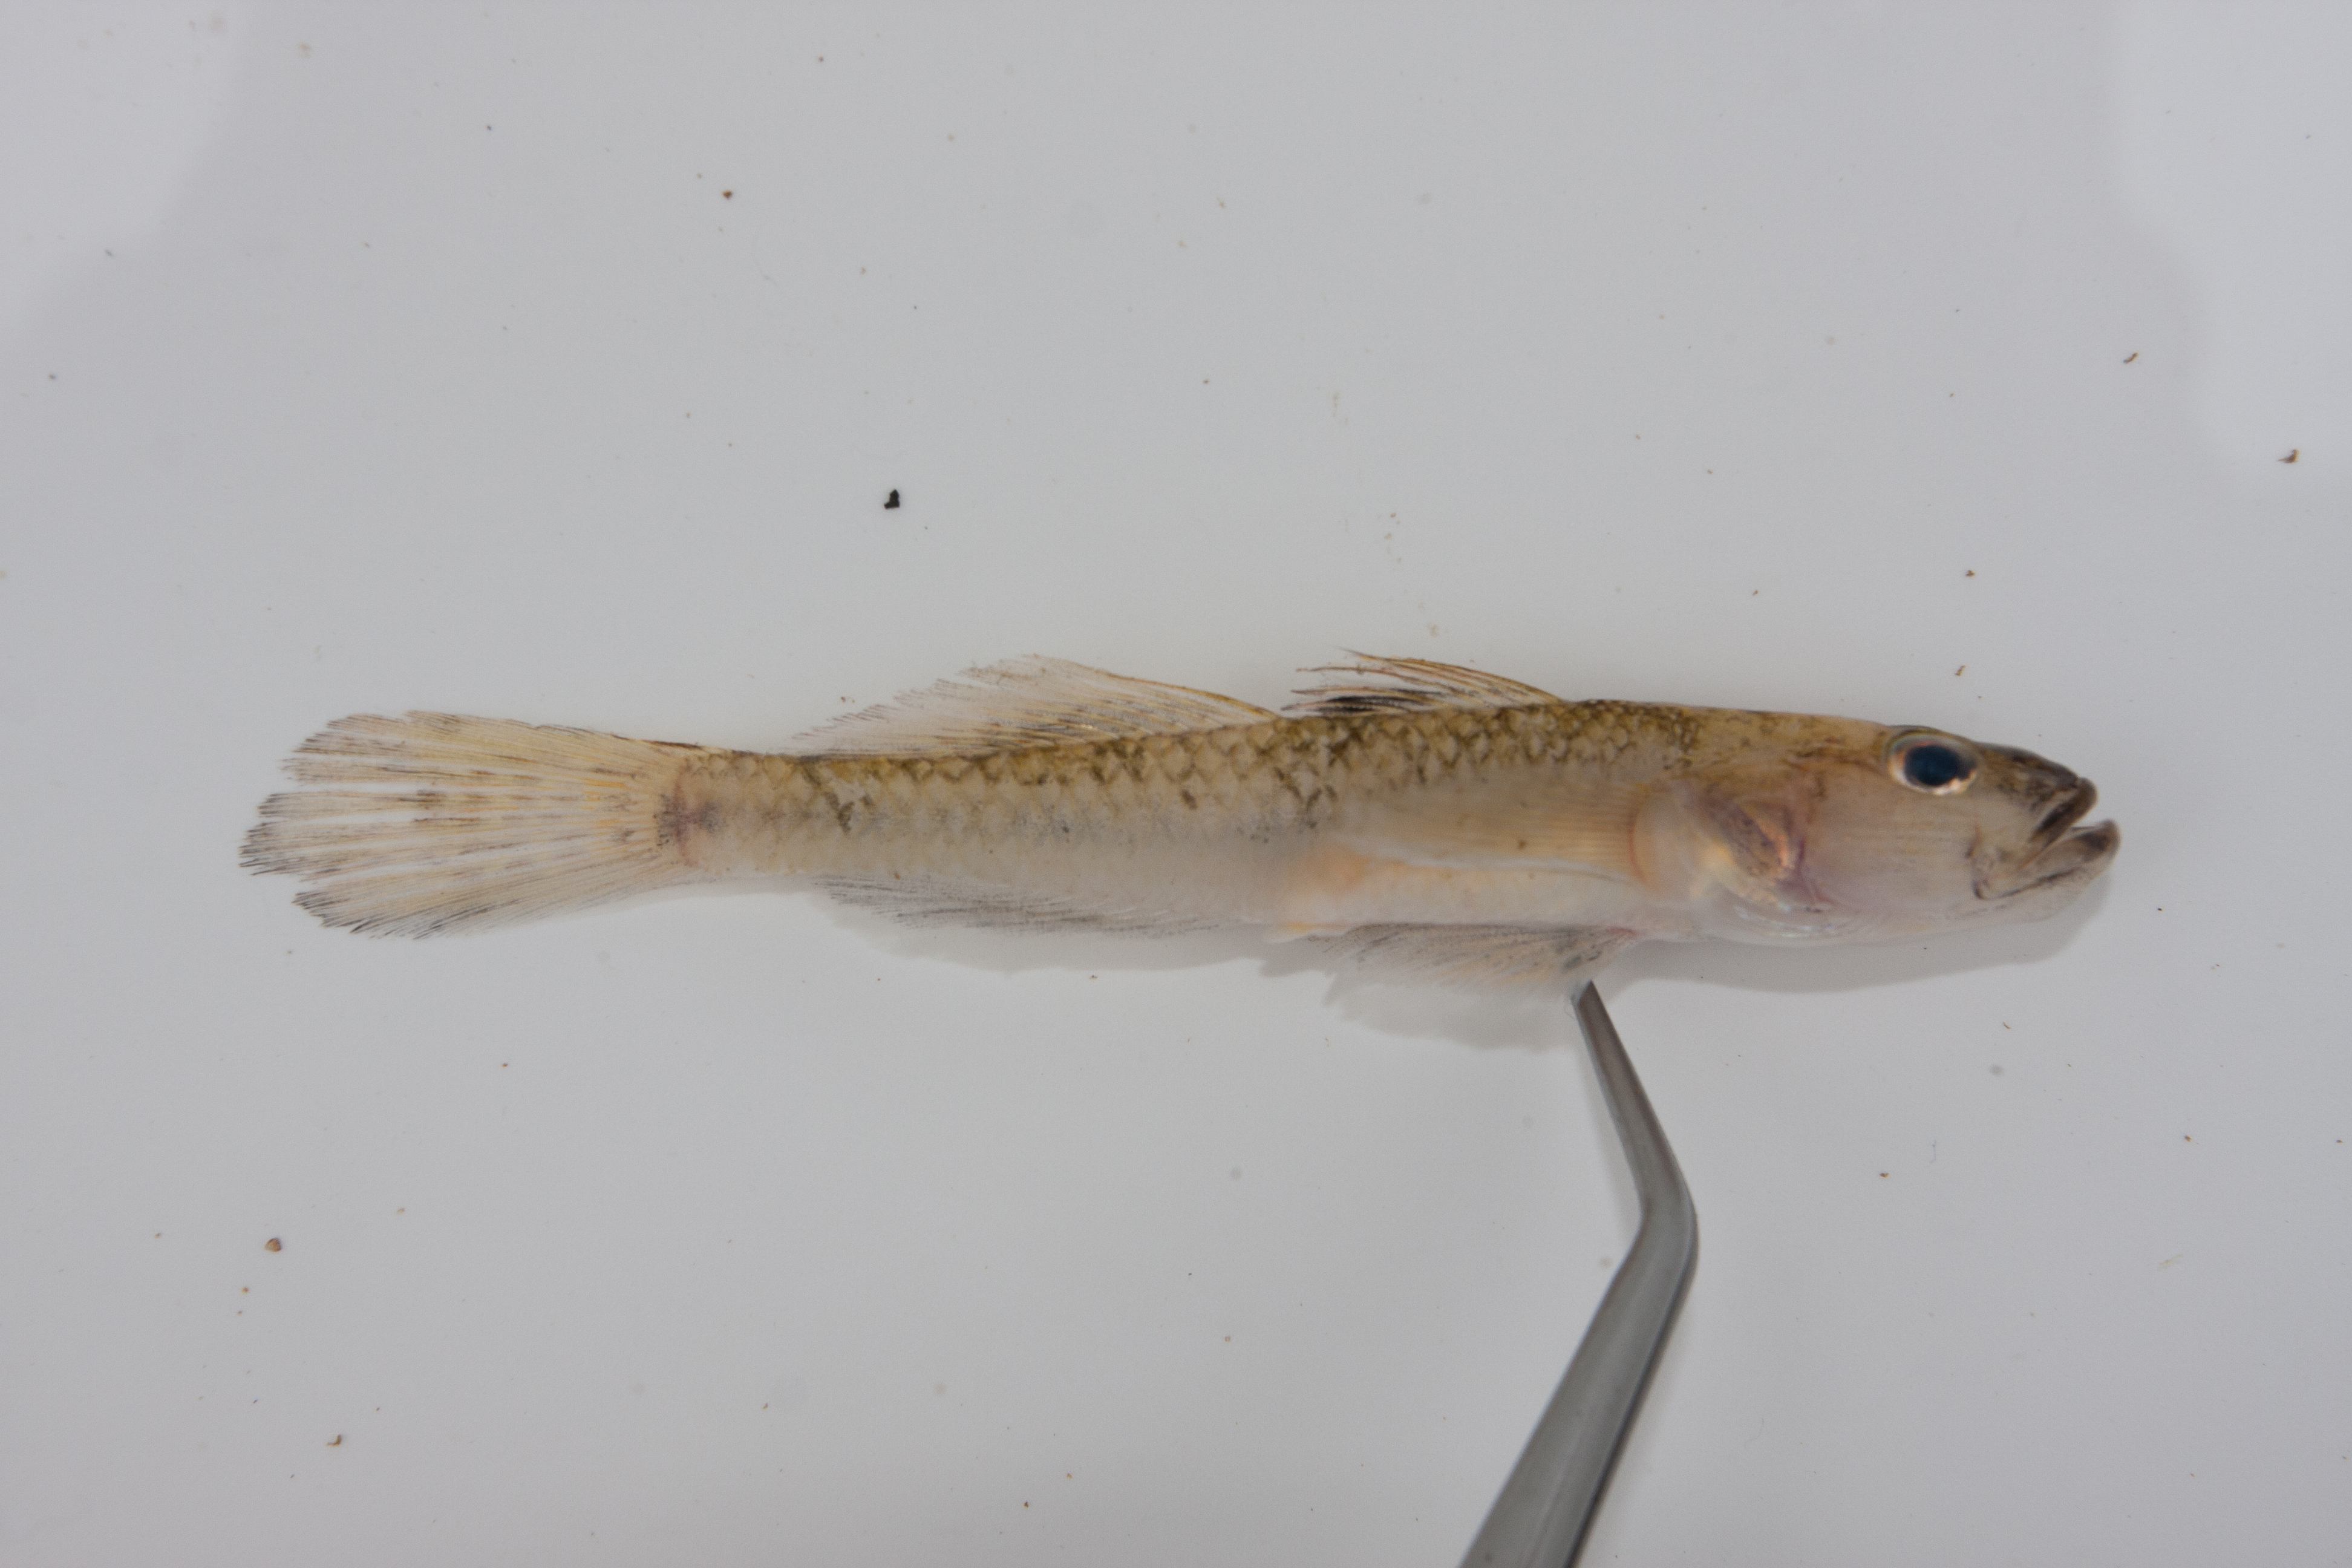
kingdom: Animalia
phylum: Chordata
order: Perciformes
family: Gobiidae
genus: Glossogobius
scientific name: Glossogobius callidus
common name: River goby
